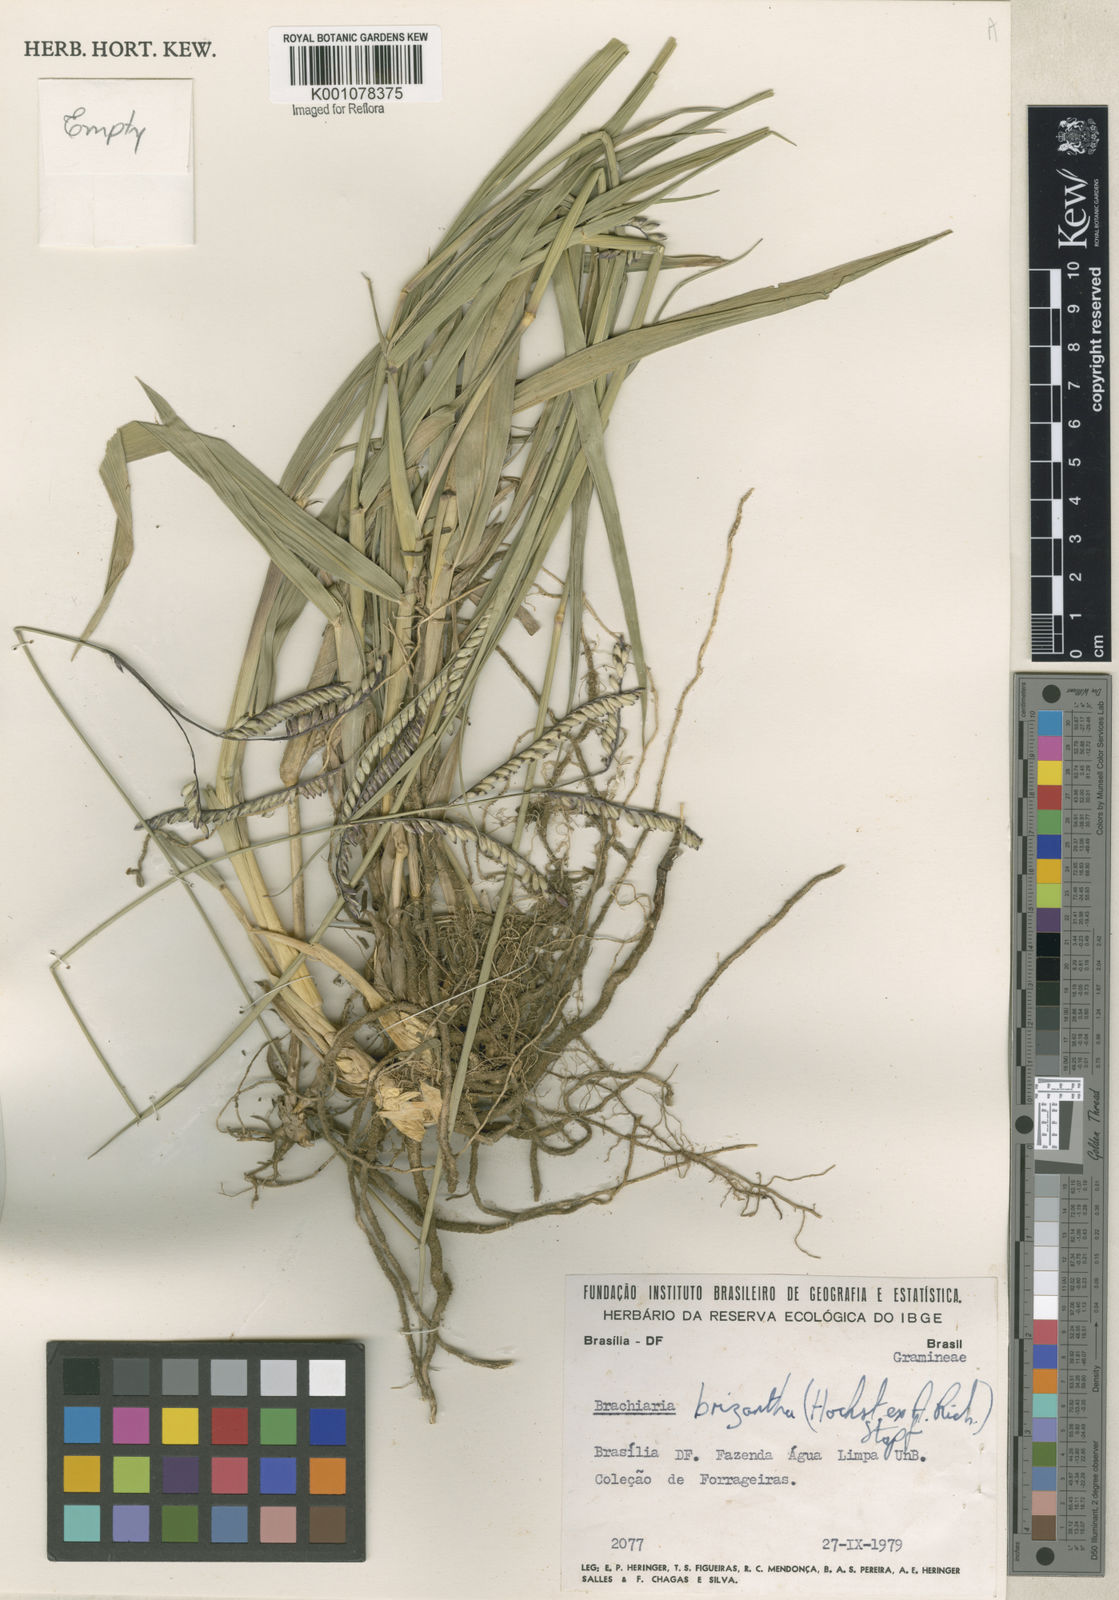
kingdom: Plantae
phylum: Tracheophyta
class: Liliopsida
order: Poales
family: Poaceae
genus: Urochloa
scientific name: Urochloa brizantha
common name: Palisade signalgrass
